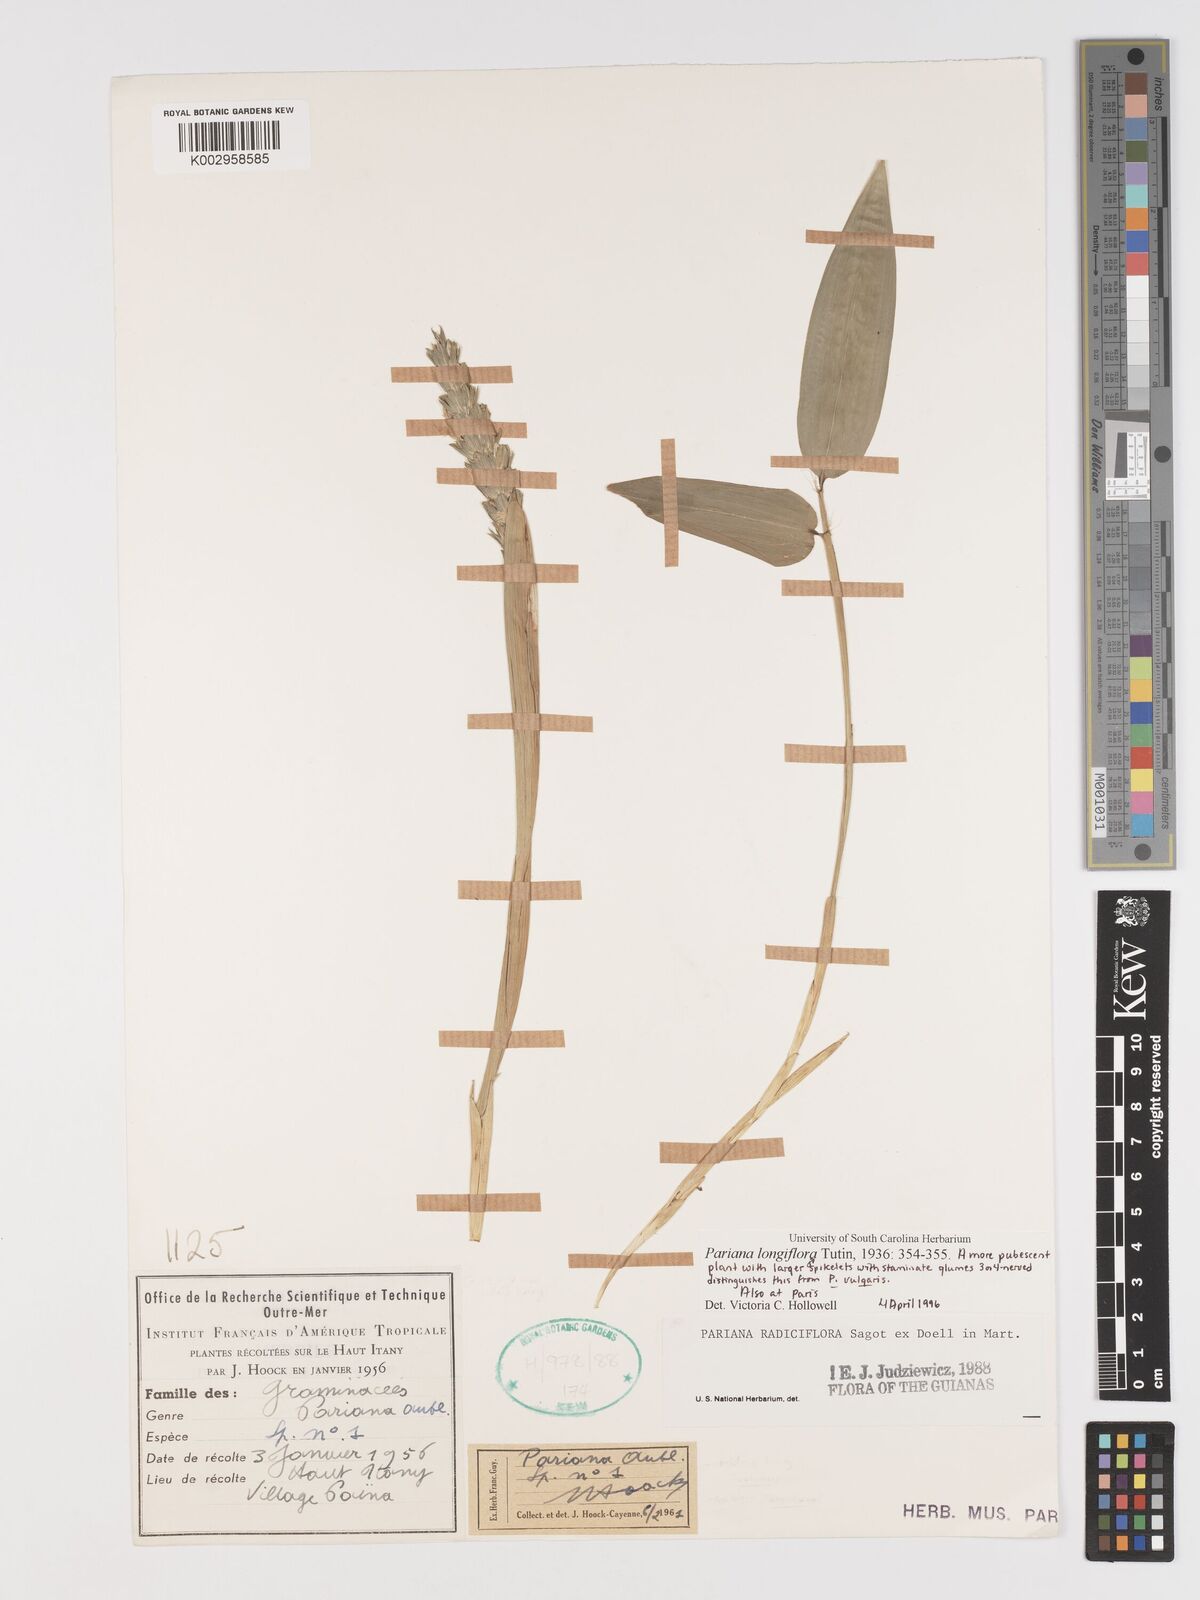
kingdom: Plantae
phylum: Tracheophyta
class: Liliopsida
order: Poales
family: Poaceae
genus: Pariana
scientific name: Pariana radiciflora
